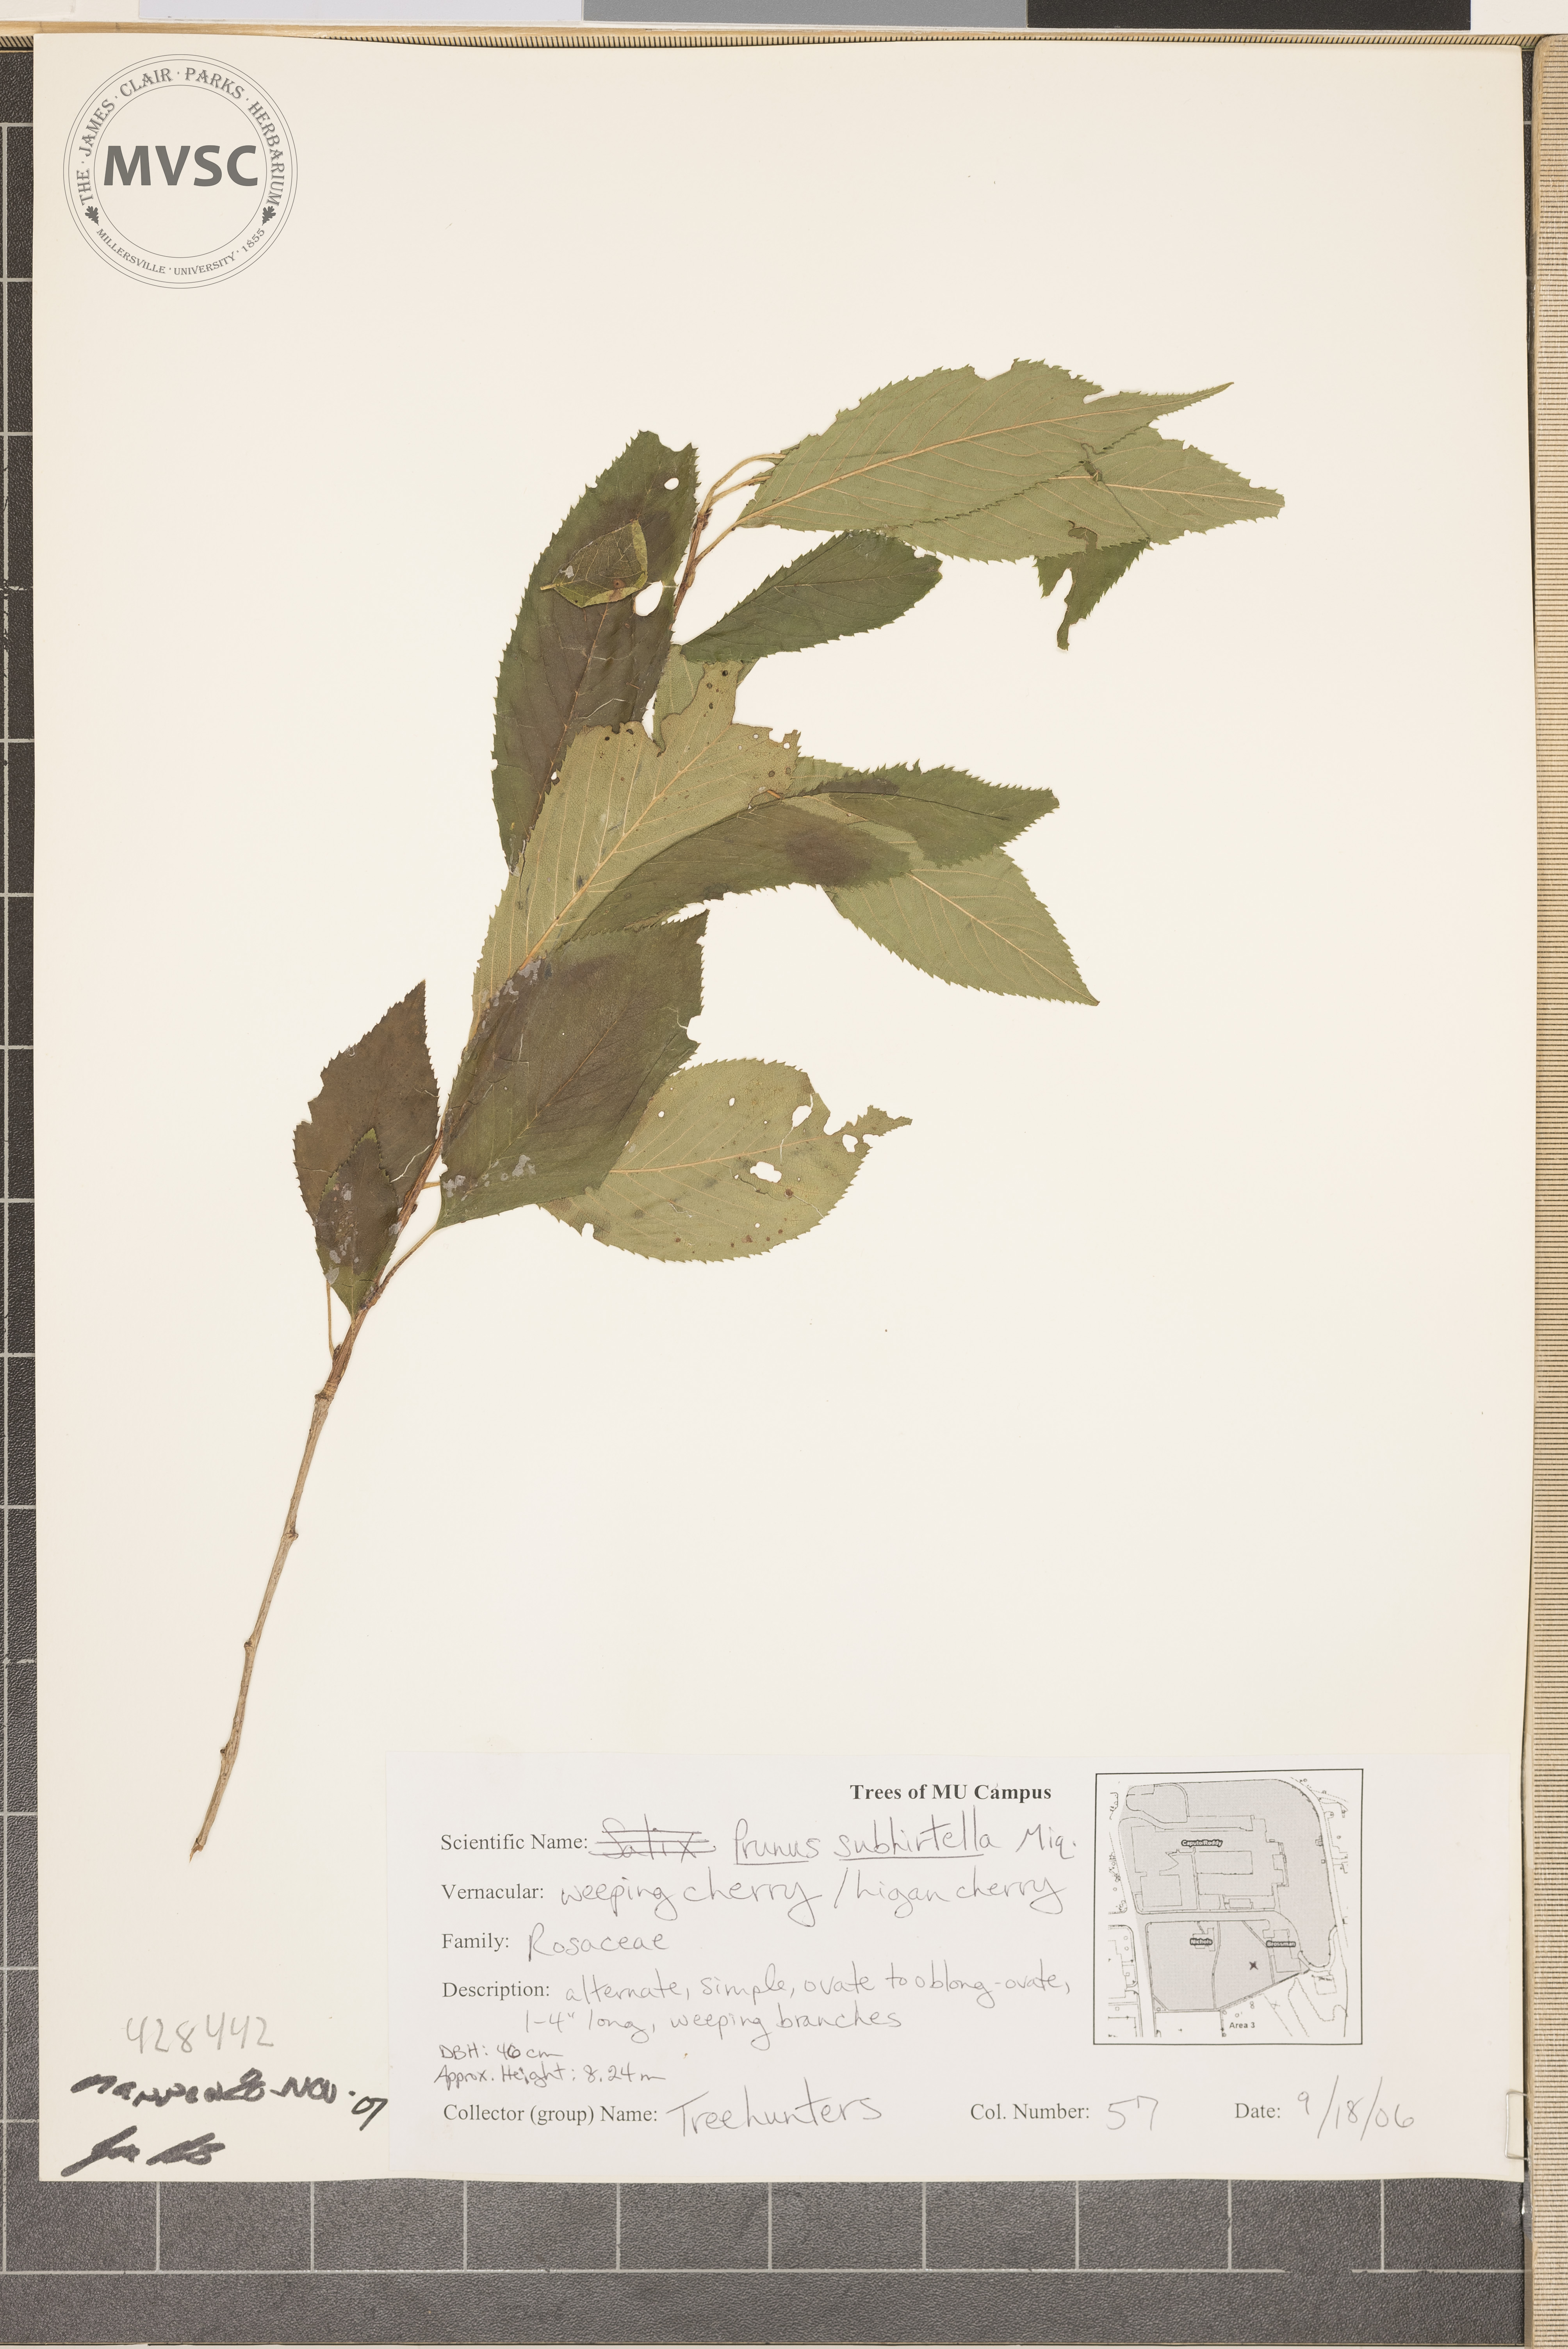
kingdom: Plantae
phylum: Tracheophyta
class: Magnoliopsida
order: Rosales
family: Rosaceae
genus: Prunus
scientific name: Prunus subhirtella
